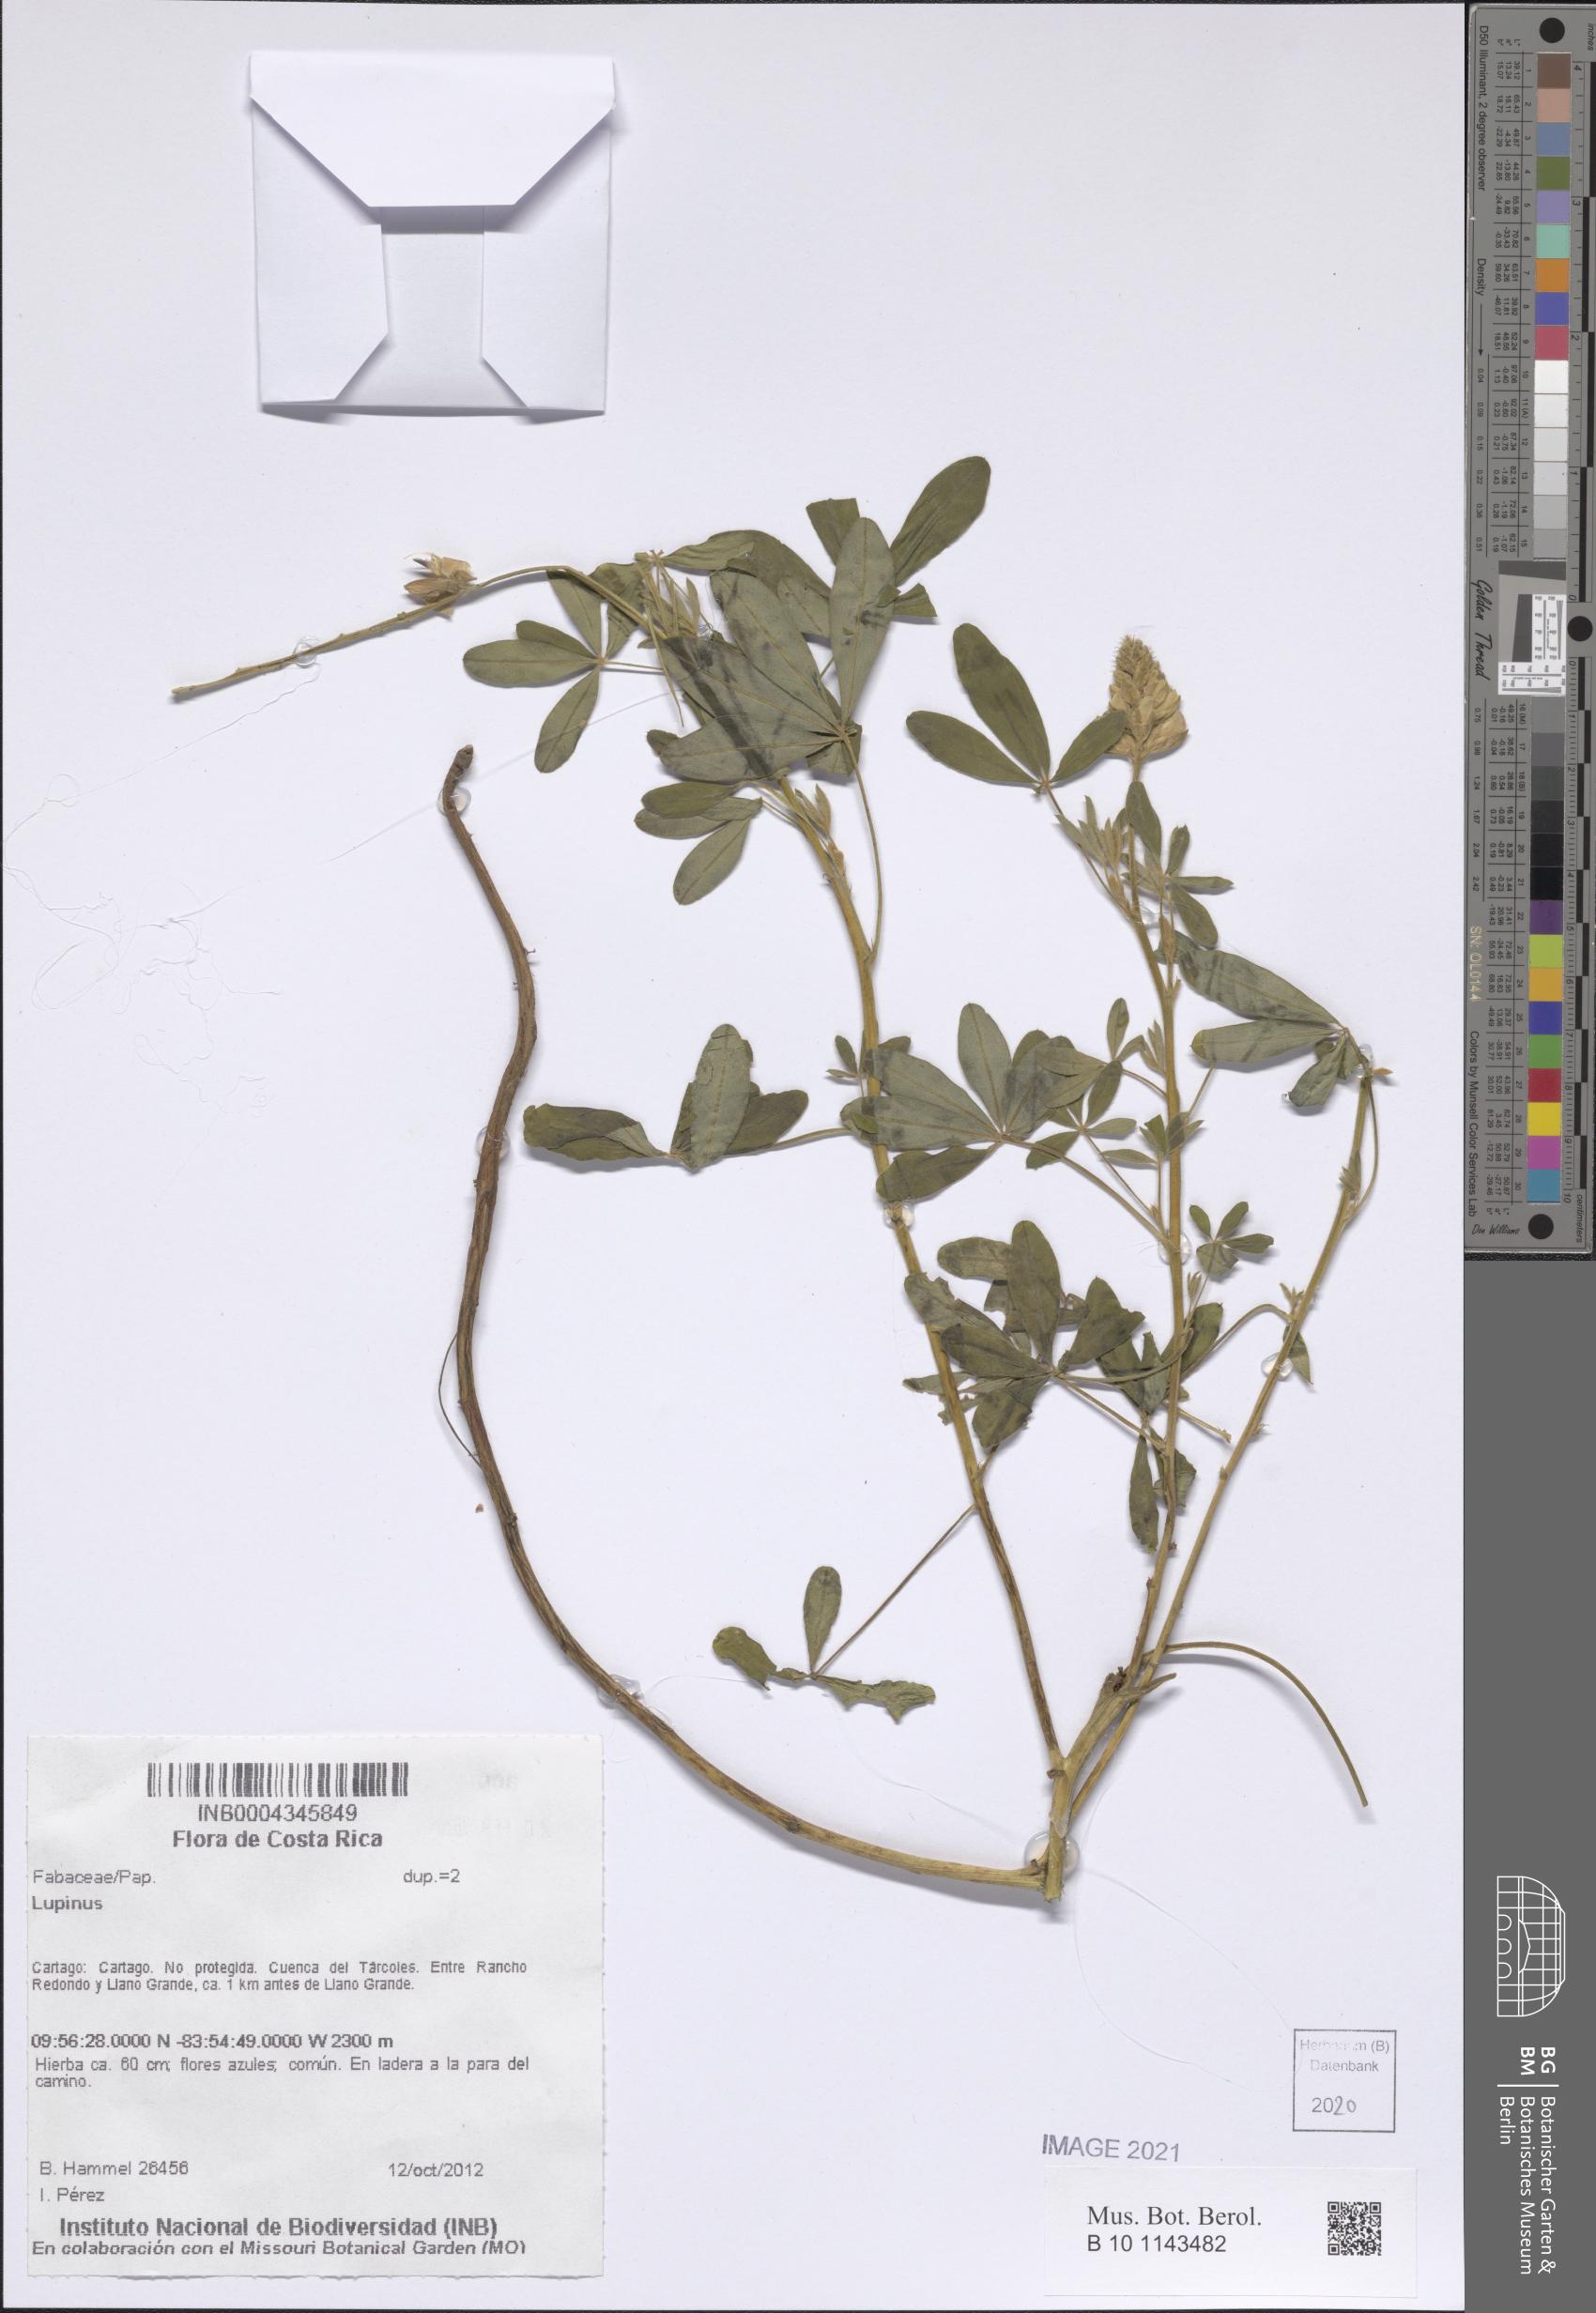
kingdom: Plantae
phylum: Tracheophyta
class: Magnoliopsida
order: Fabales
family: Fabaceae
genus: Lupinus
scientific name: Lupinus
